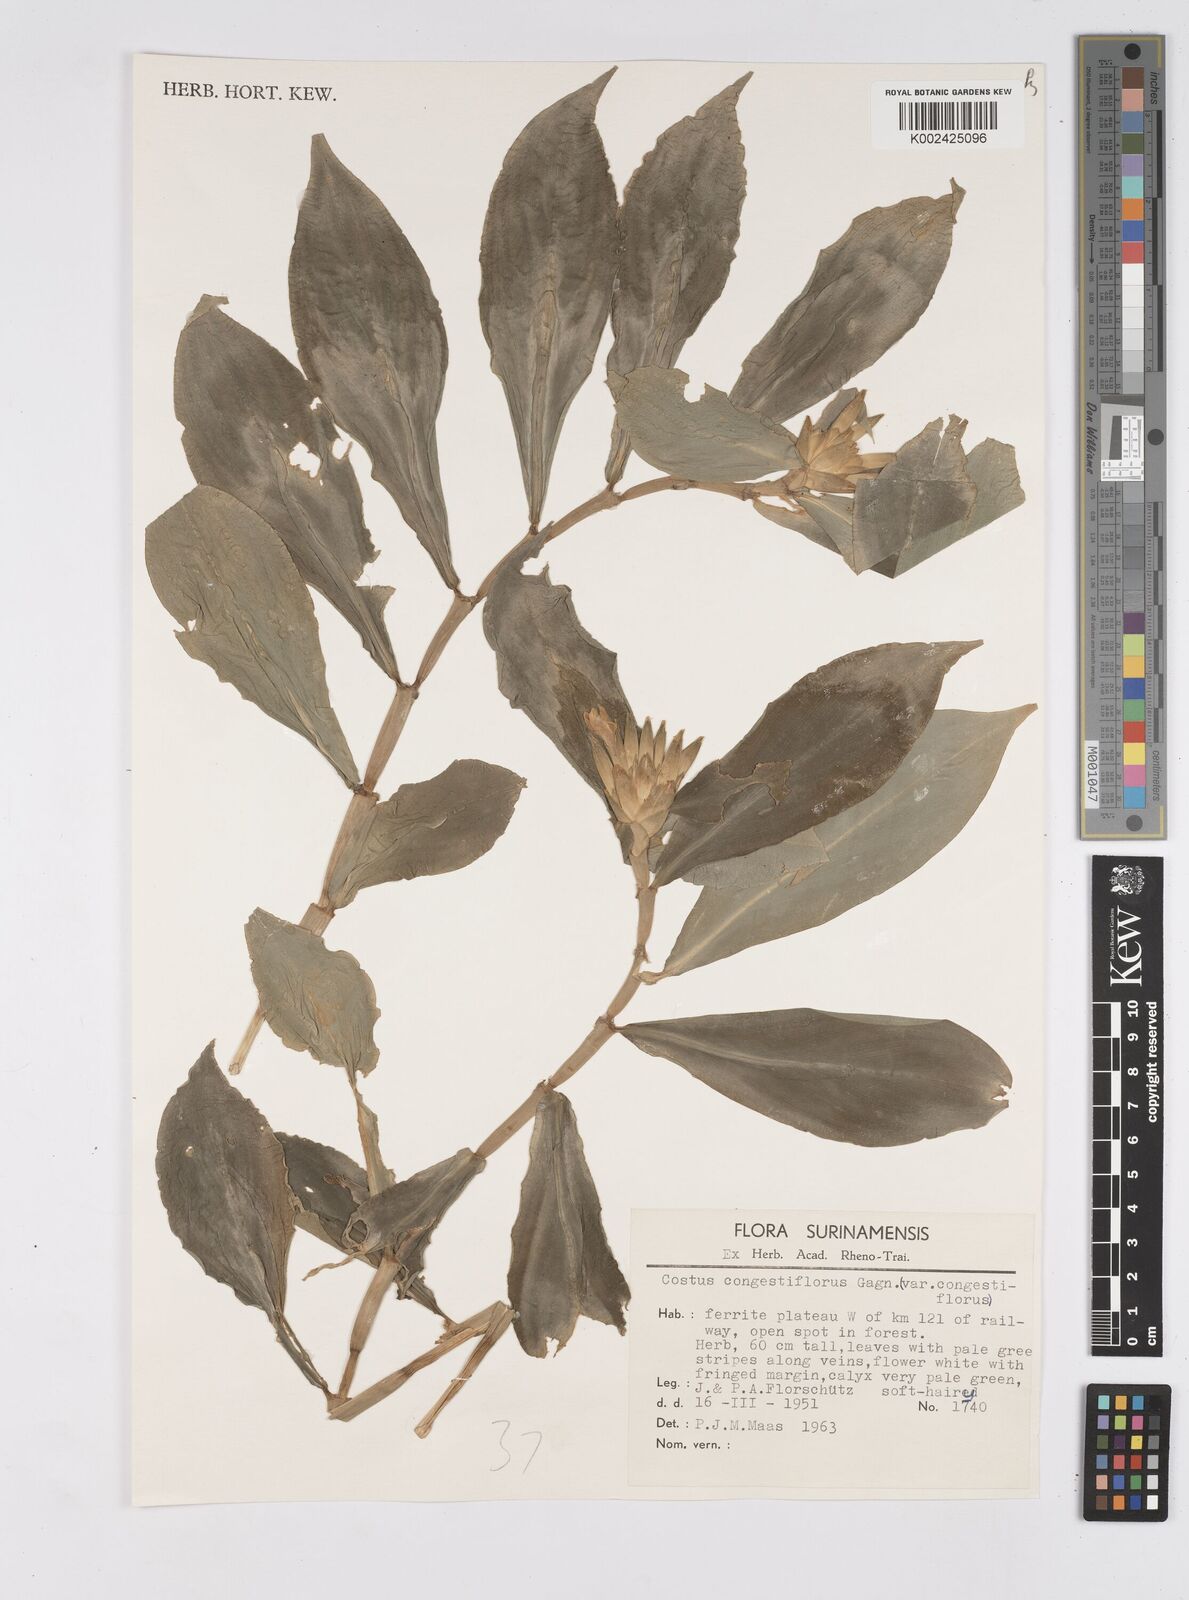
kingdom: Plantae
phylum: Tracheophyta
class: Liliopsida
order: Zingiberales
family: Costaceae
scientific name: Costaceae
